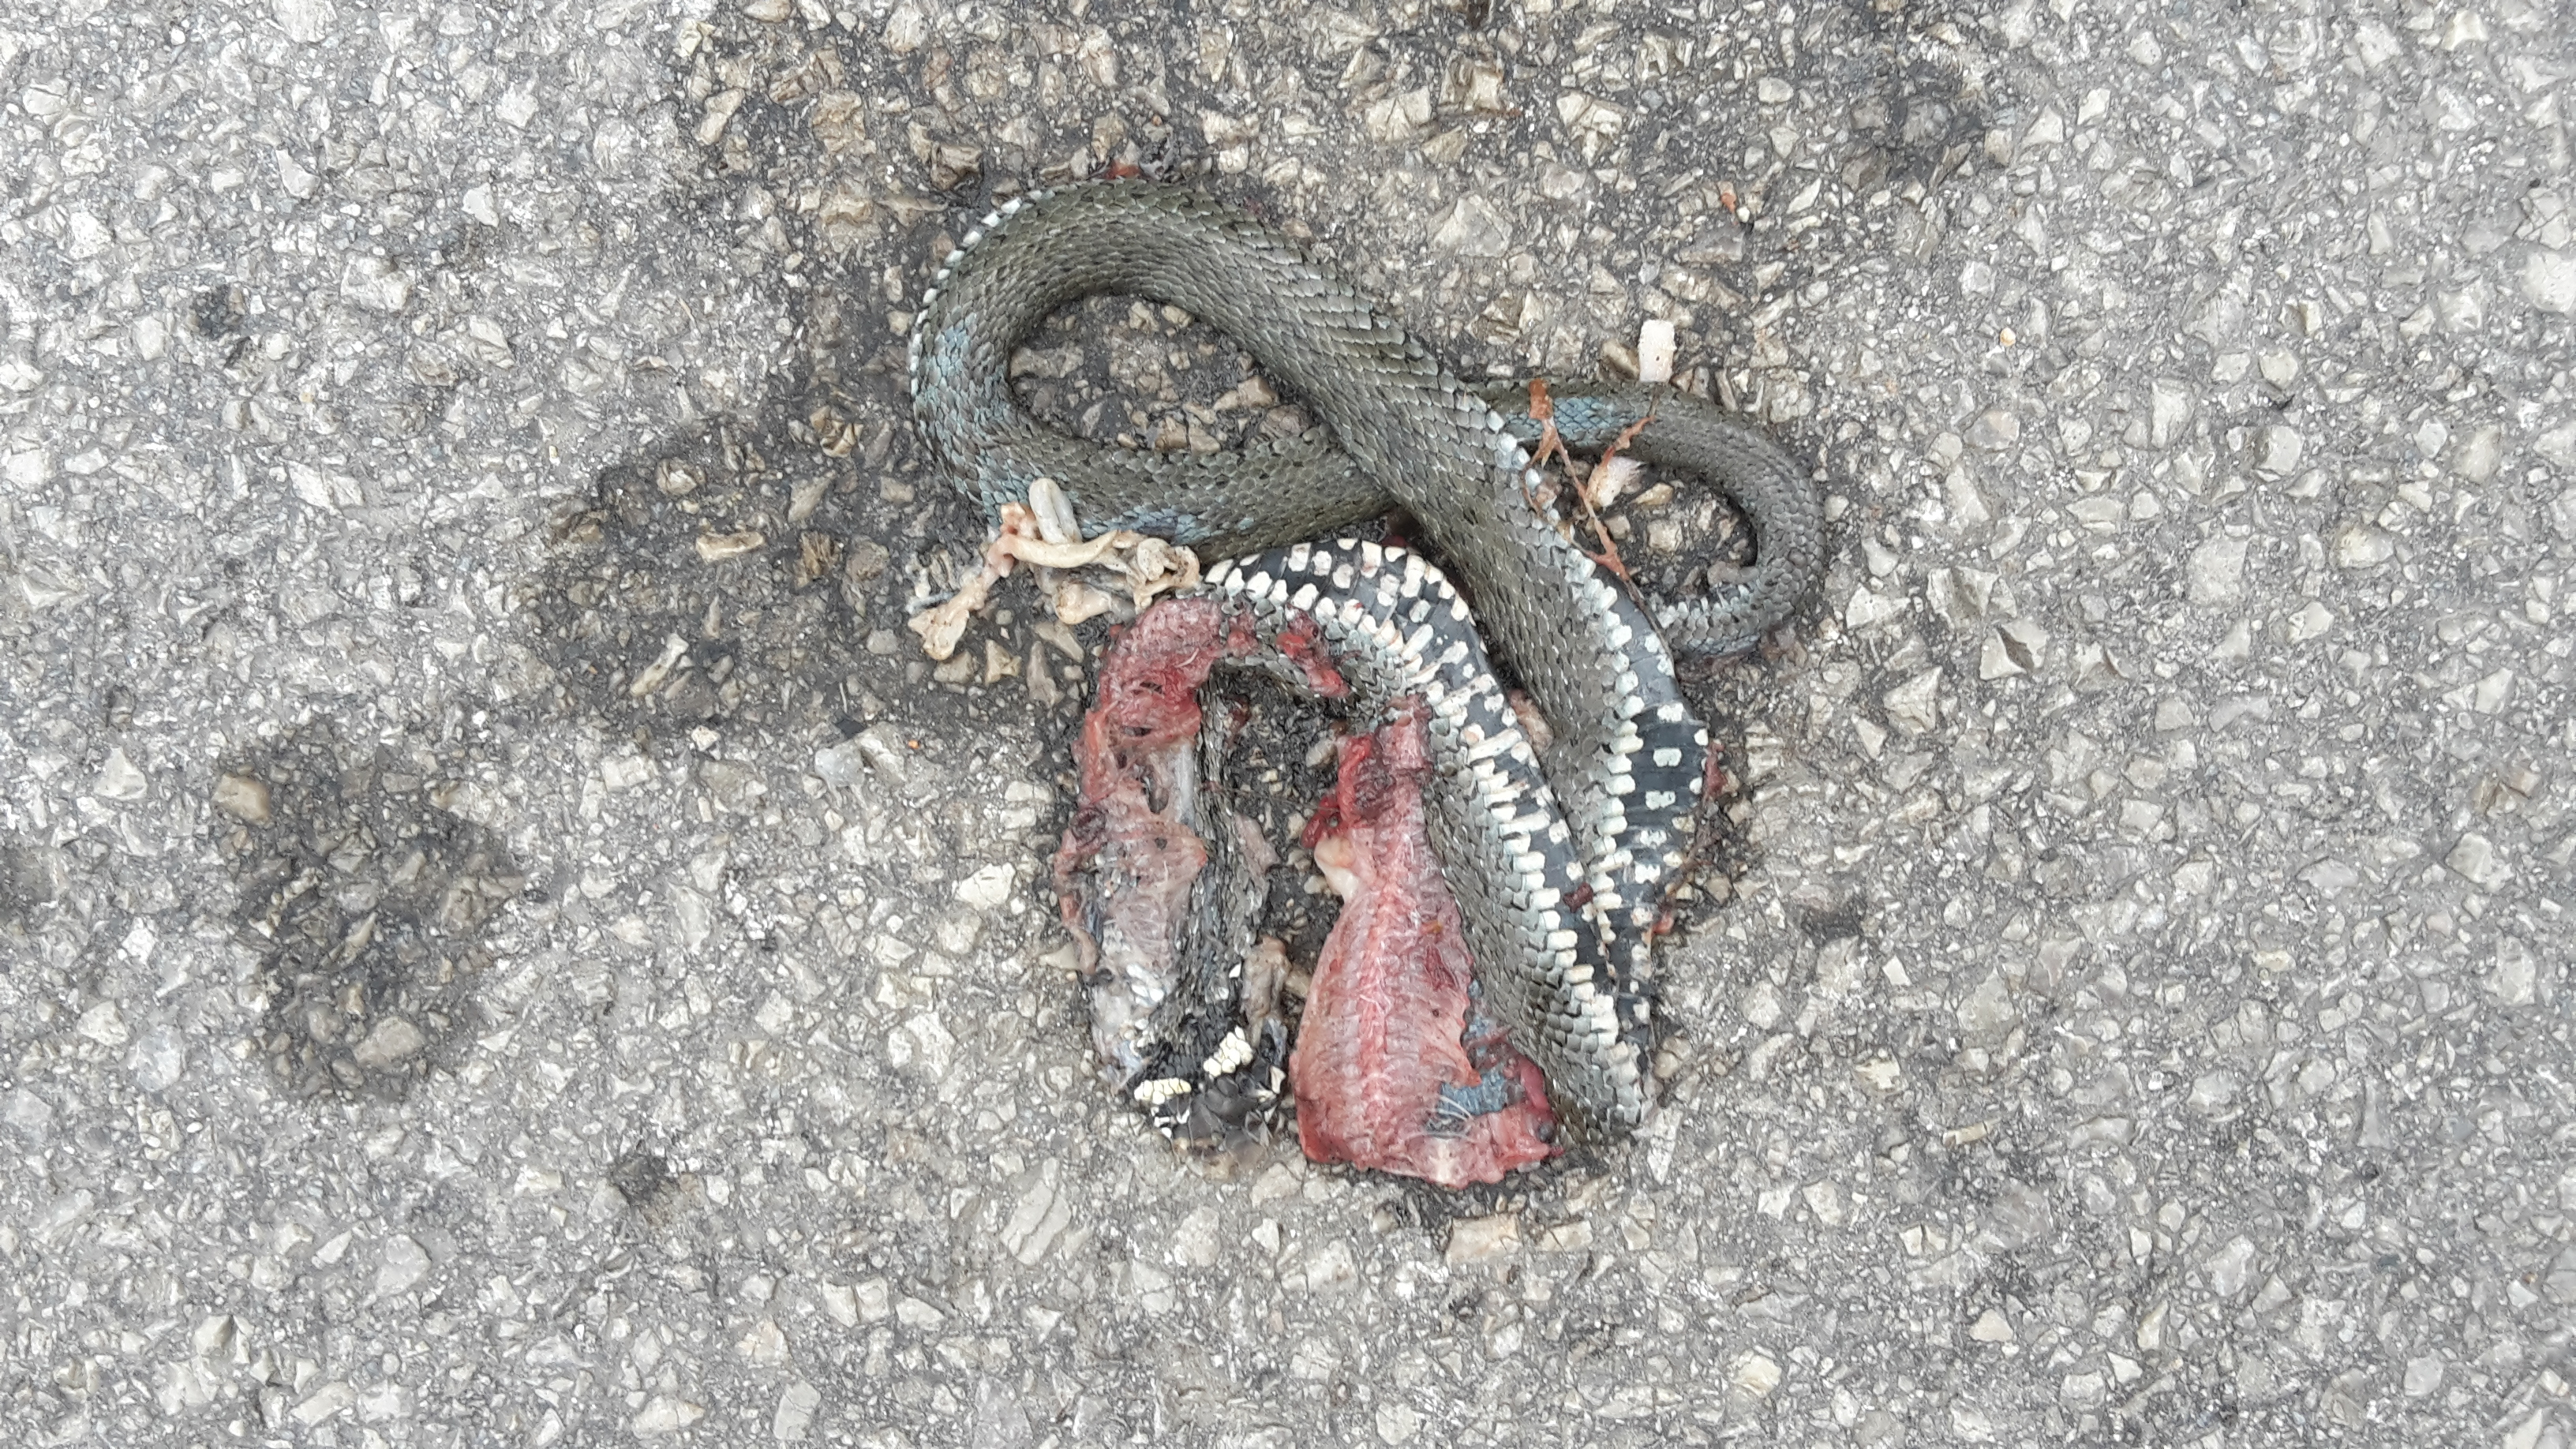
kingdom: Animalia
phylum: Chordata
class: Squamata
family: Colubridae
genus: Natrix
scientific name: Natrix natrix
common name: Grass snake
